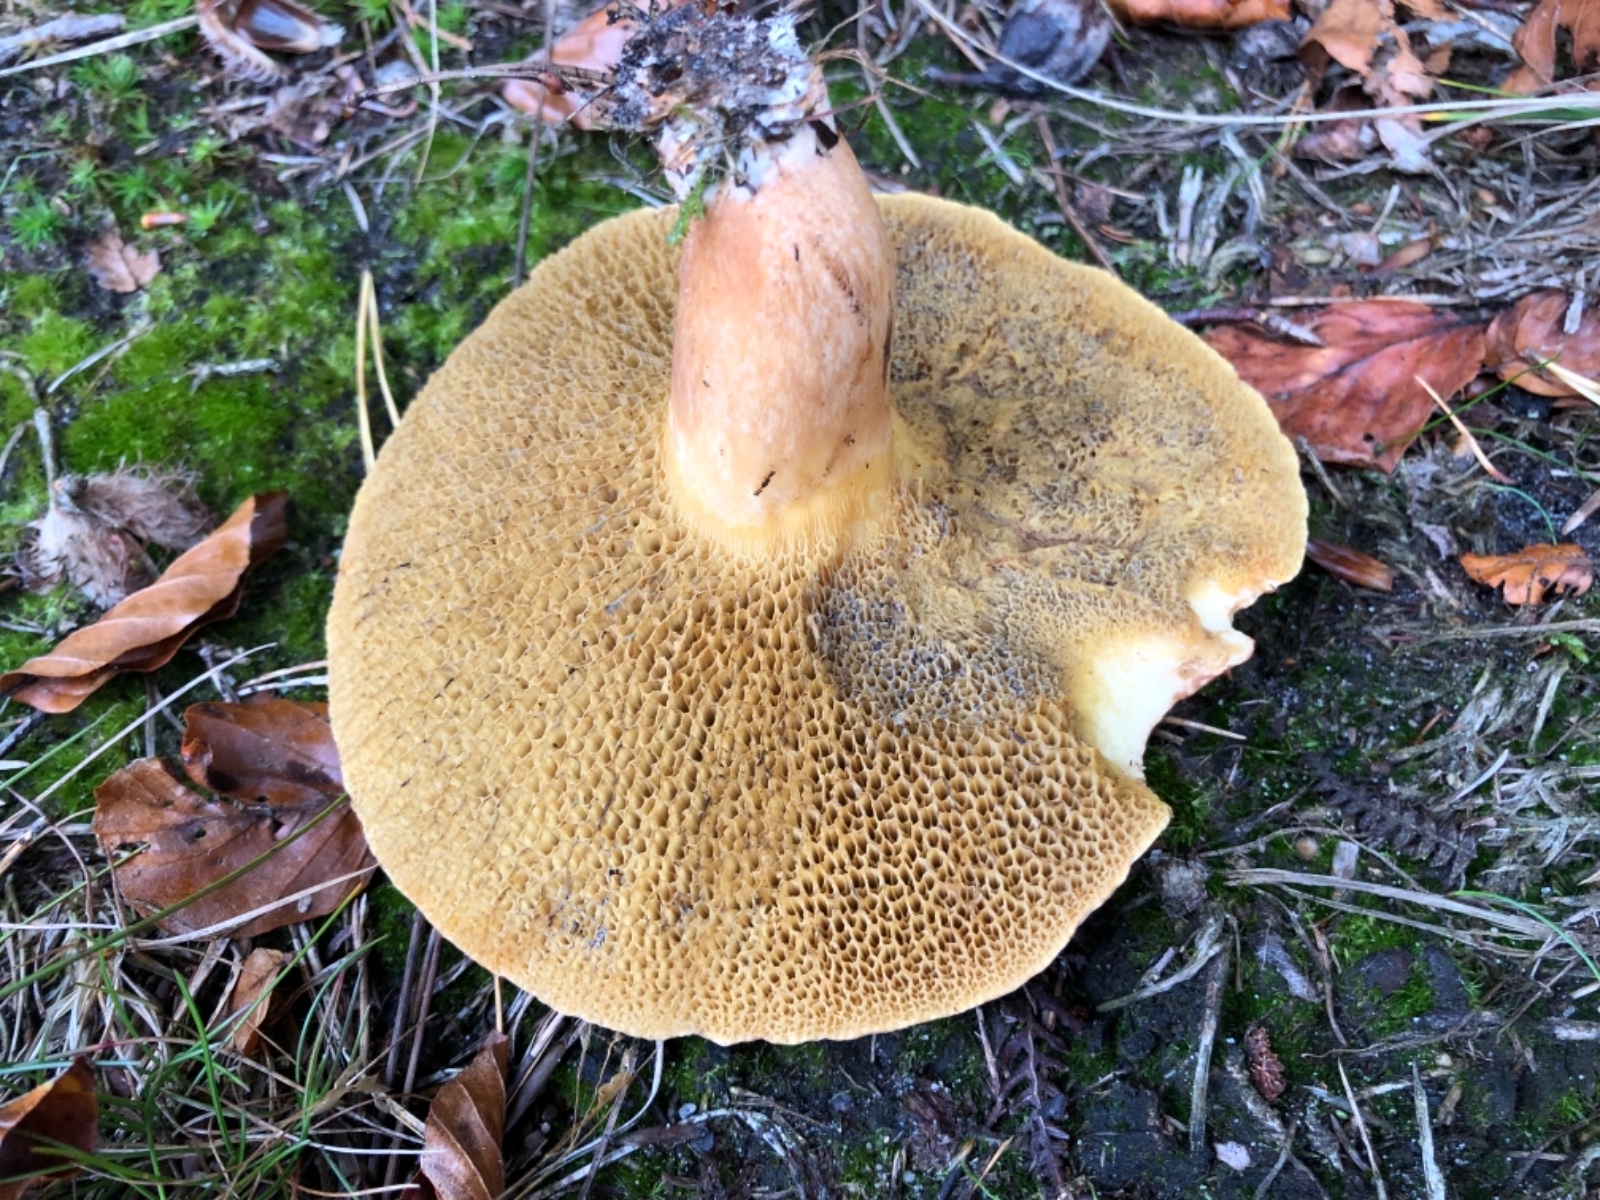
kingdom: Fungi
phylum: Basidiomycota
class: Agaricomycetes
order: Boletales
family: Suillaceae
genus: Suillus
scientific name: Suillus bovinus
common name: grovporet slimrørhat
